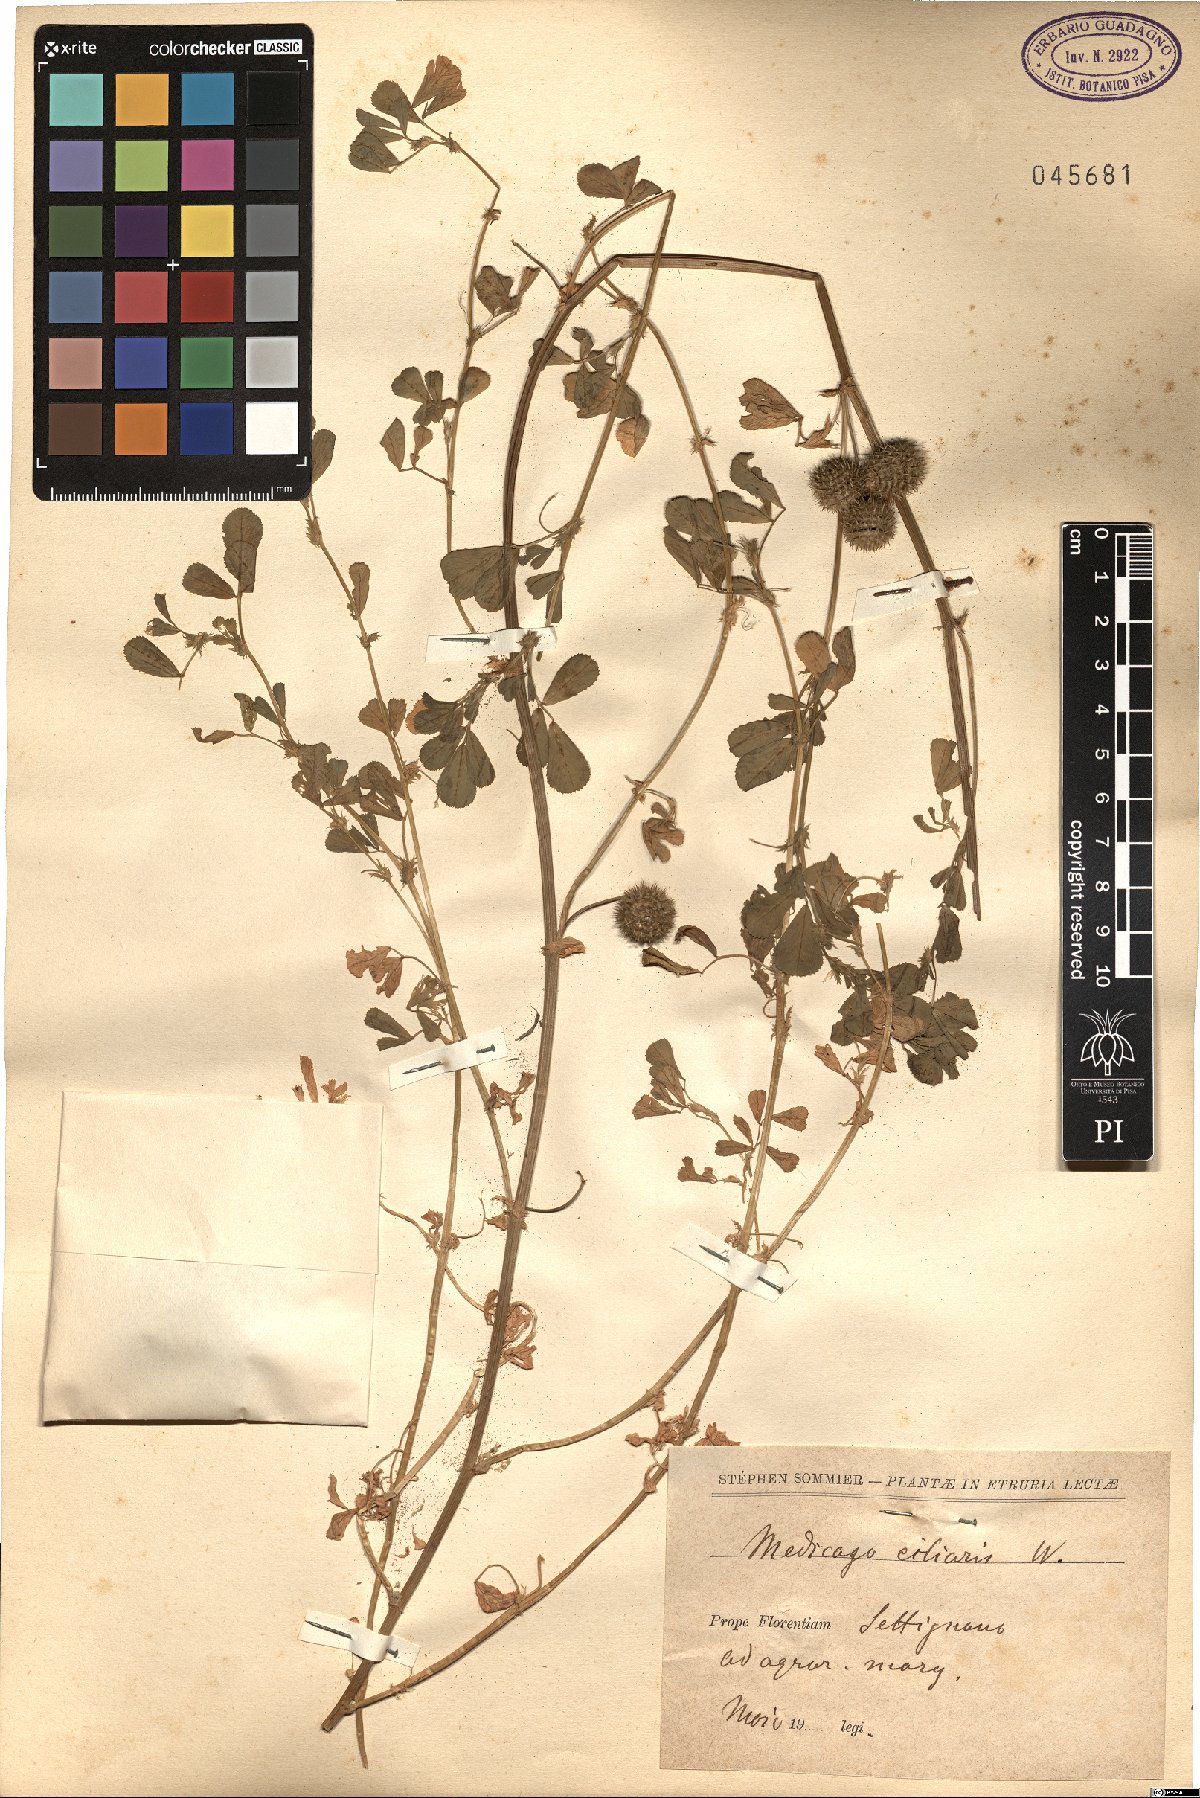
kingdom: Plantae
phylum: Tracheophyta
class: Magnoliopsida
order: Fabales
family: Fabaceae
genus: Medicago
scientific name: Medicago ciliaris
